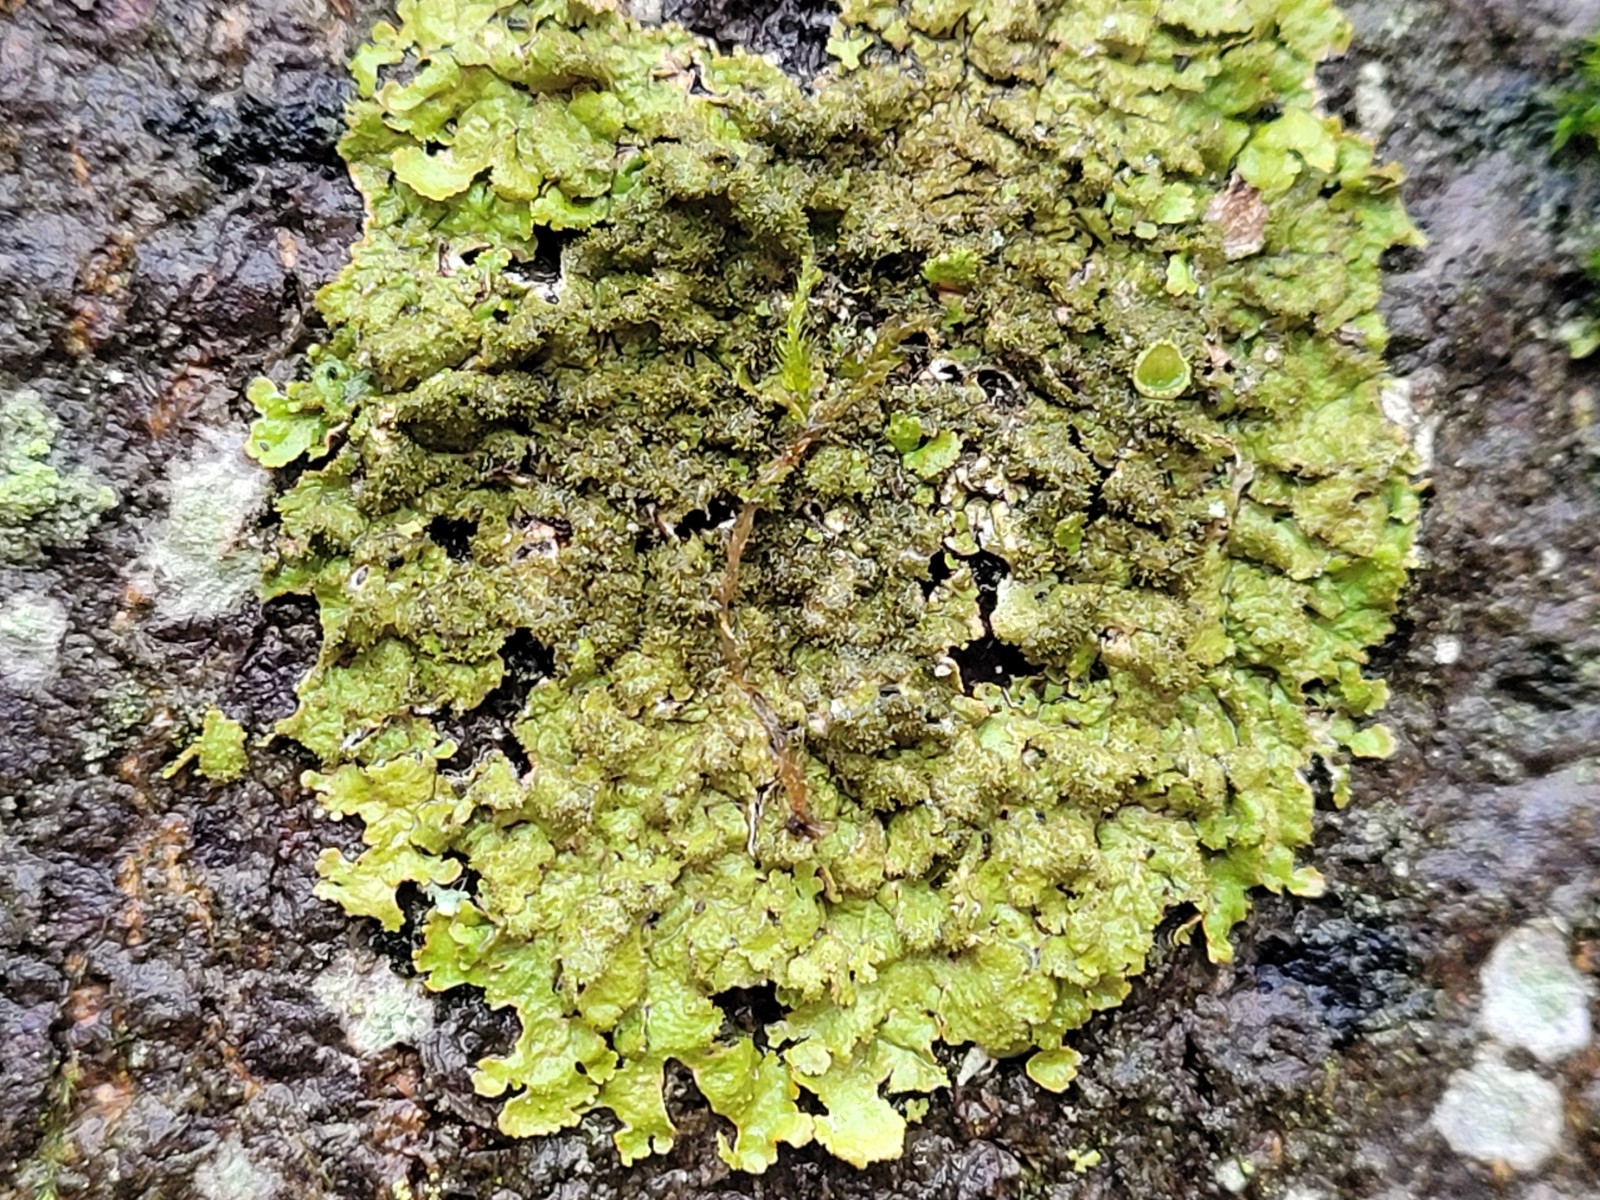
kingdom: Fungi
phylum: Ascomycota
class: Lecanoromycetes
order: Lecanorales
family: Parmeliaceae
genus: Melanelixia
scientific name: Melanelixia glabratula
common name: glinsende skållav
